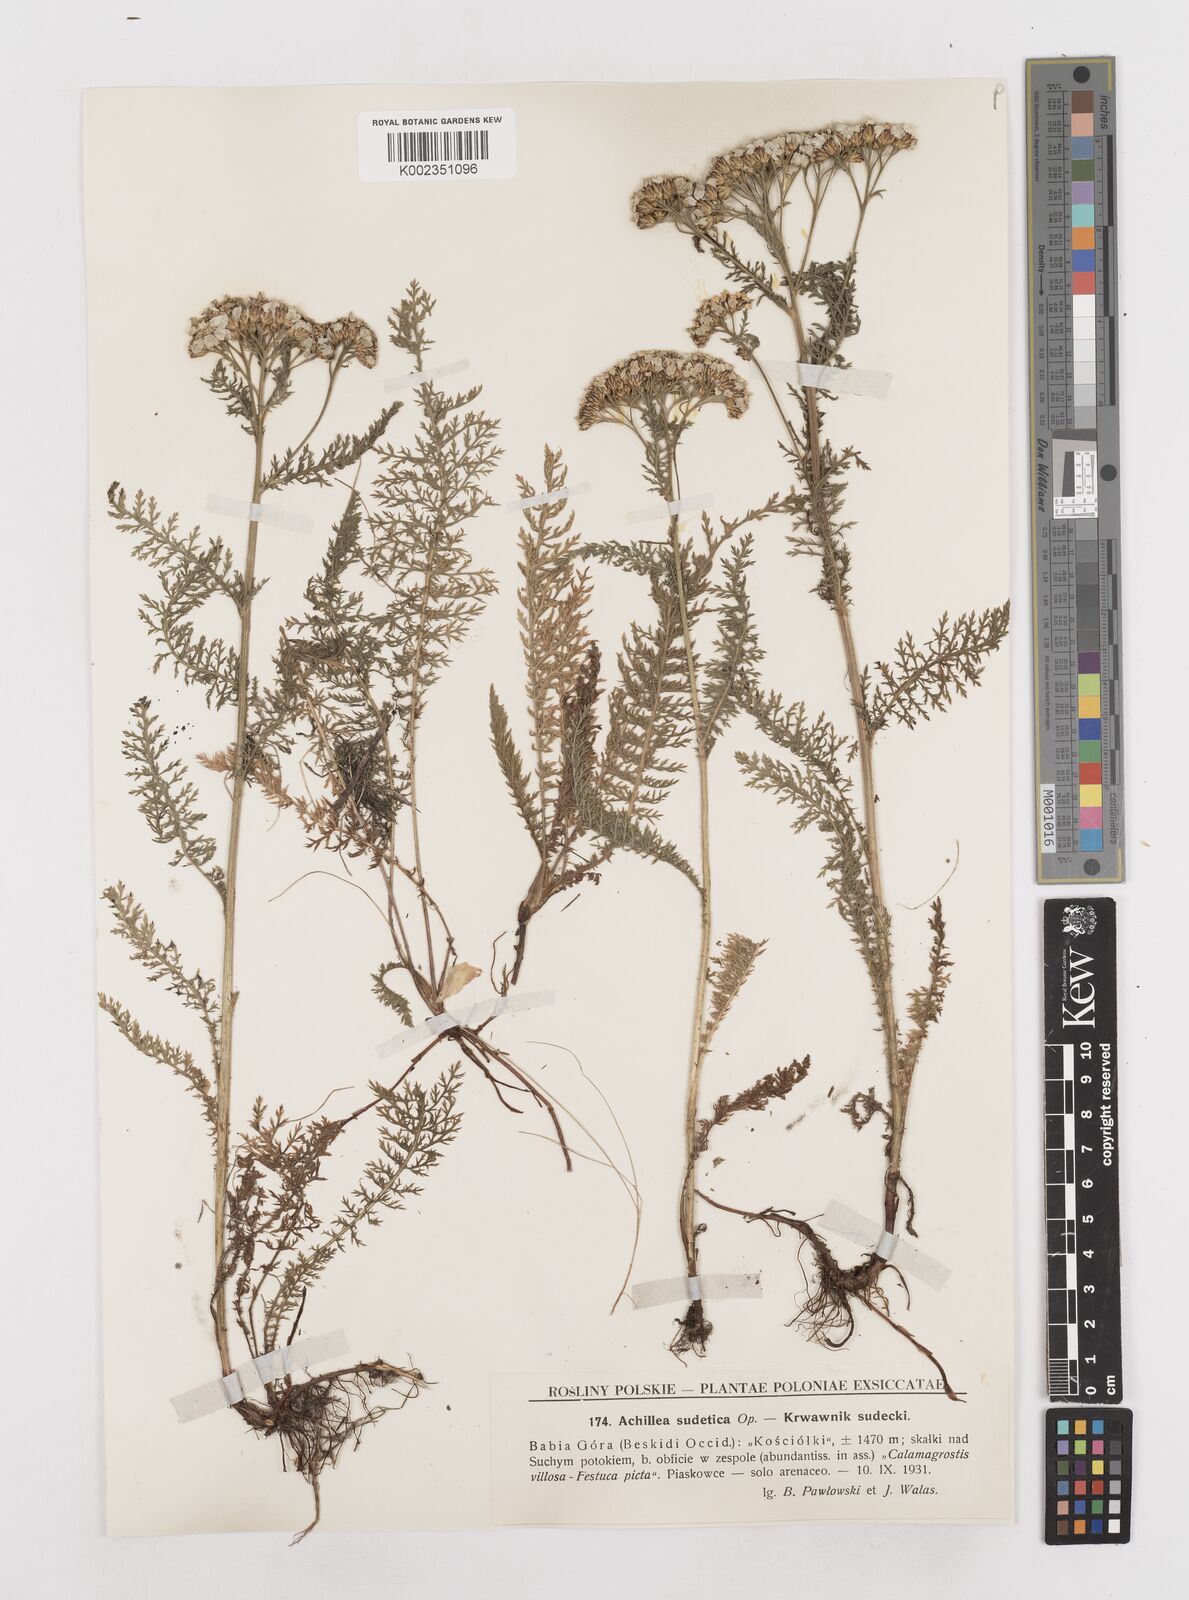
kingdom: Plantae
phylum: Tracheophyta
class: Magnoliopsida
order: Asterales
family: Asteraceae
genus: Achillea
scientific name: Achillea millefolium
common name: Yarrow
